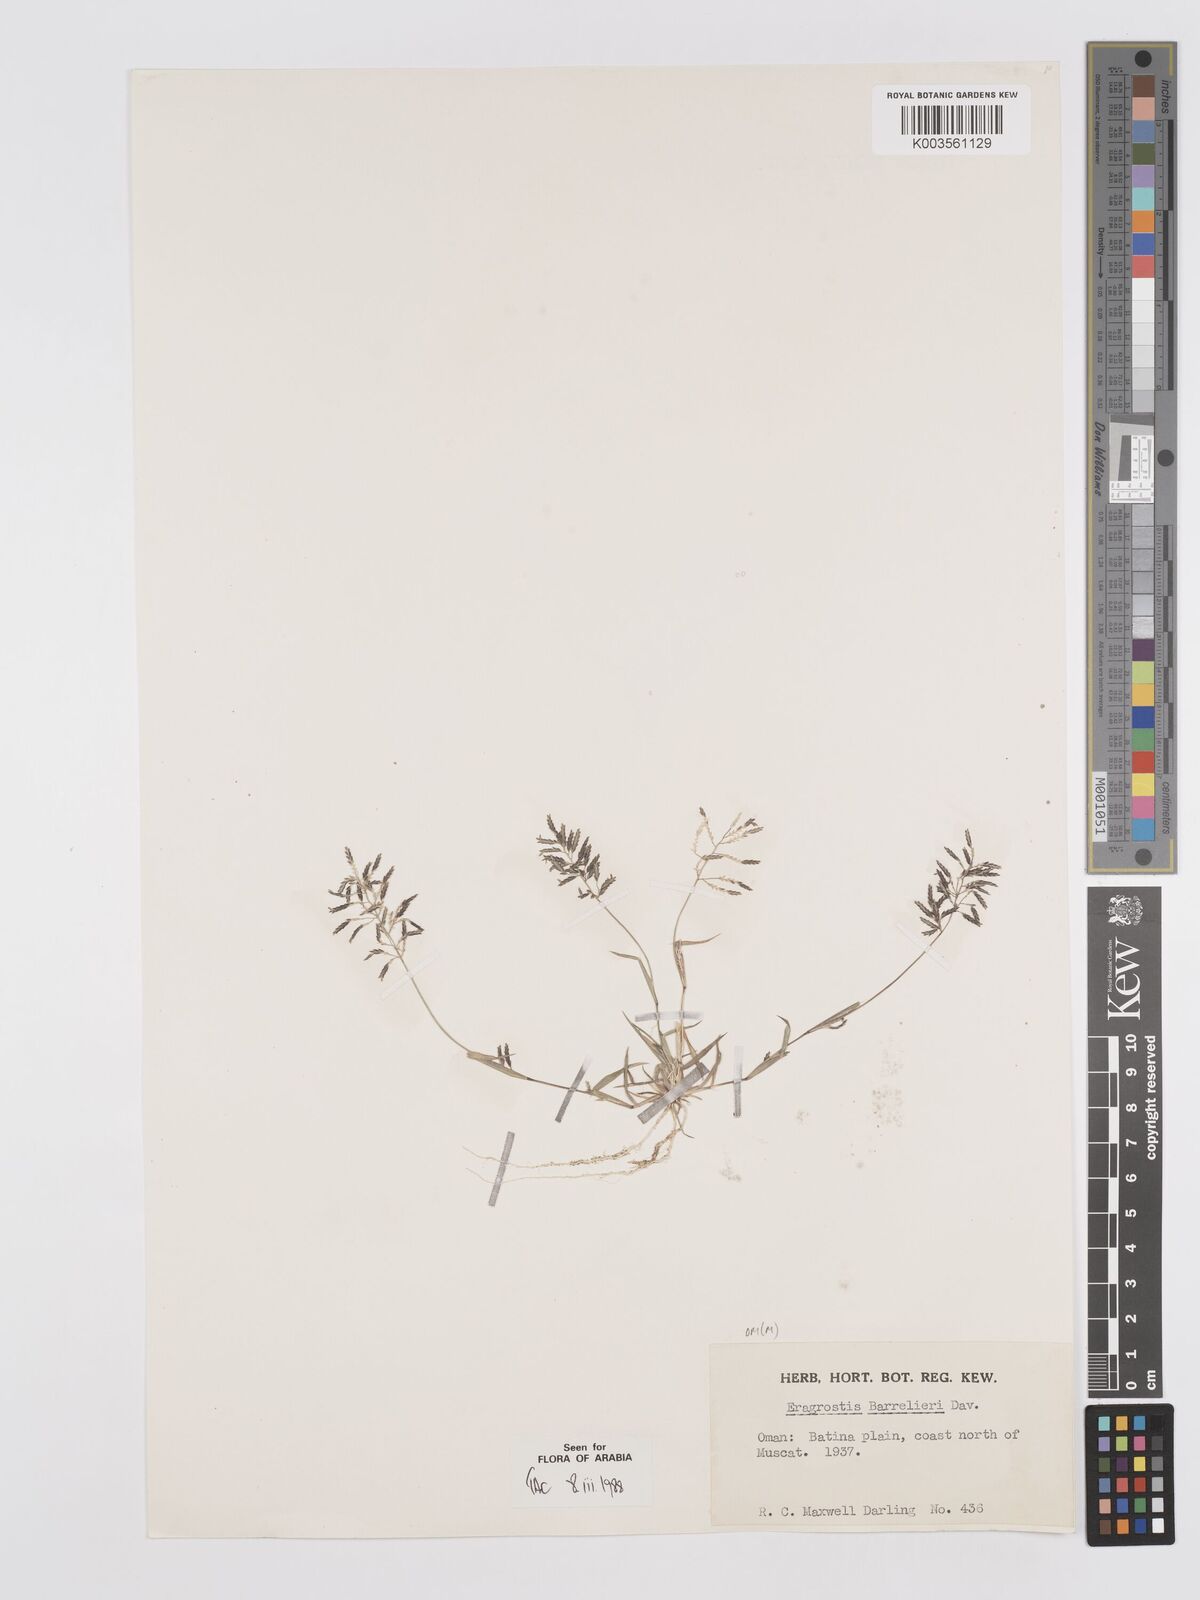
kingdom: Plantae
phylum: Tracheophyta
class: Liliopsida
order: Poales
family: Poaceae
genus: Eragrostis
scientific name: Eragrostis barrelieri
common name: Mediterranean lovegrass
